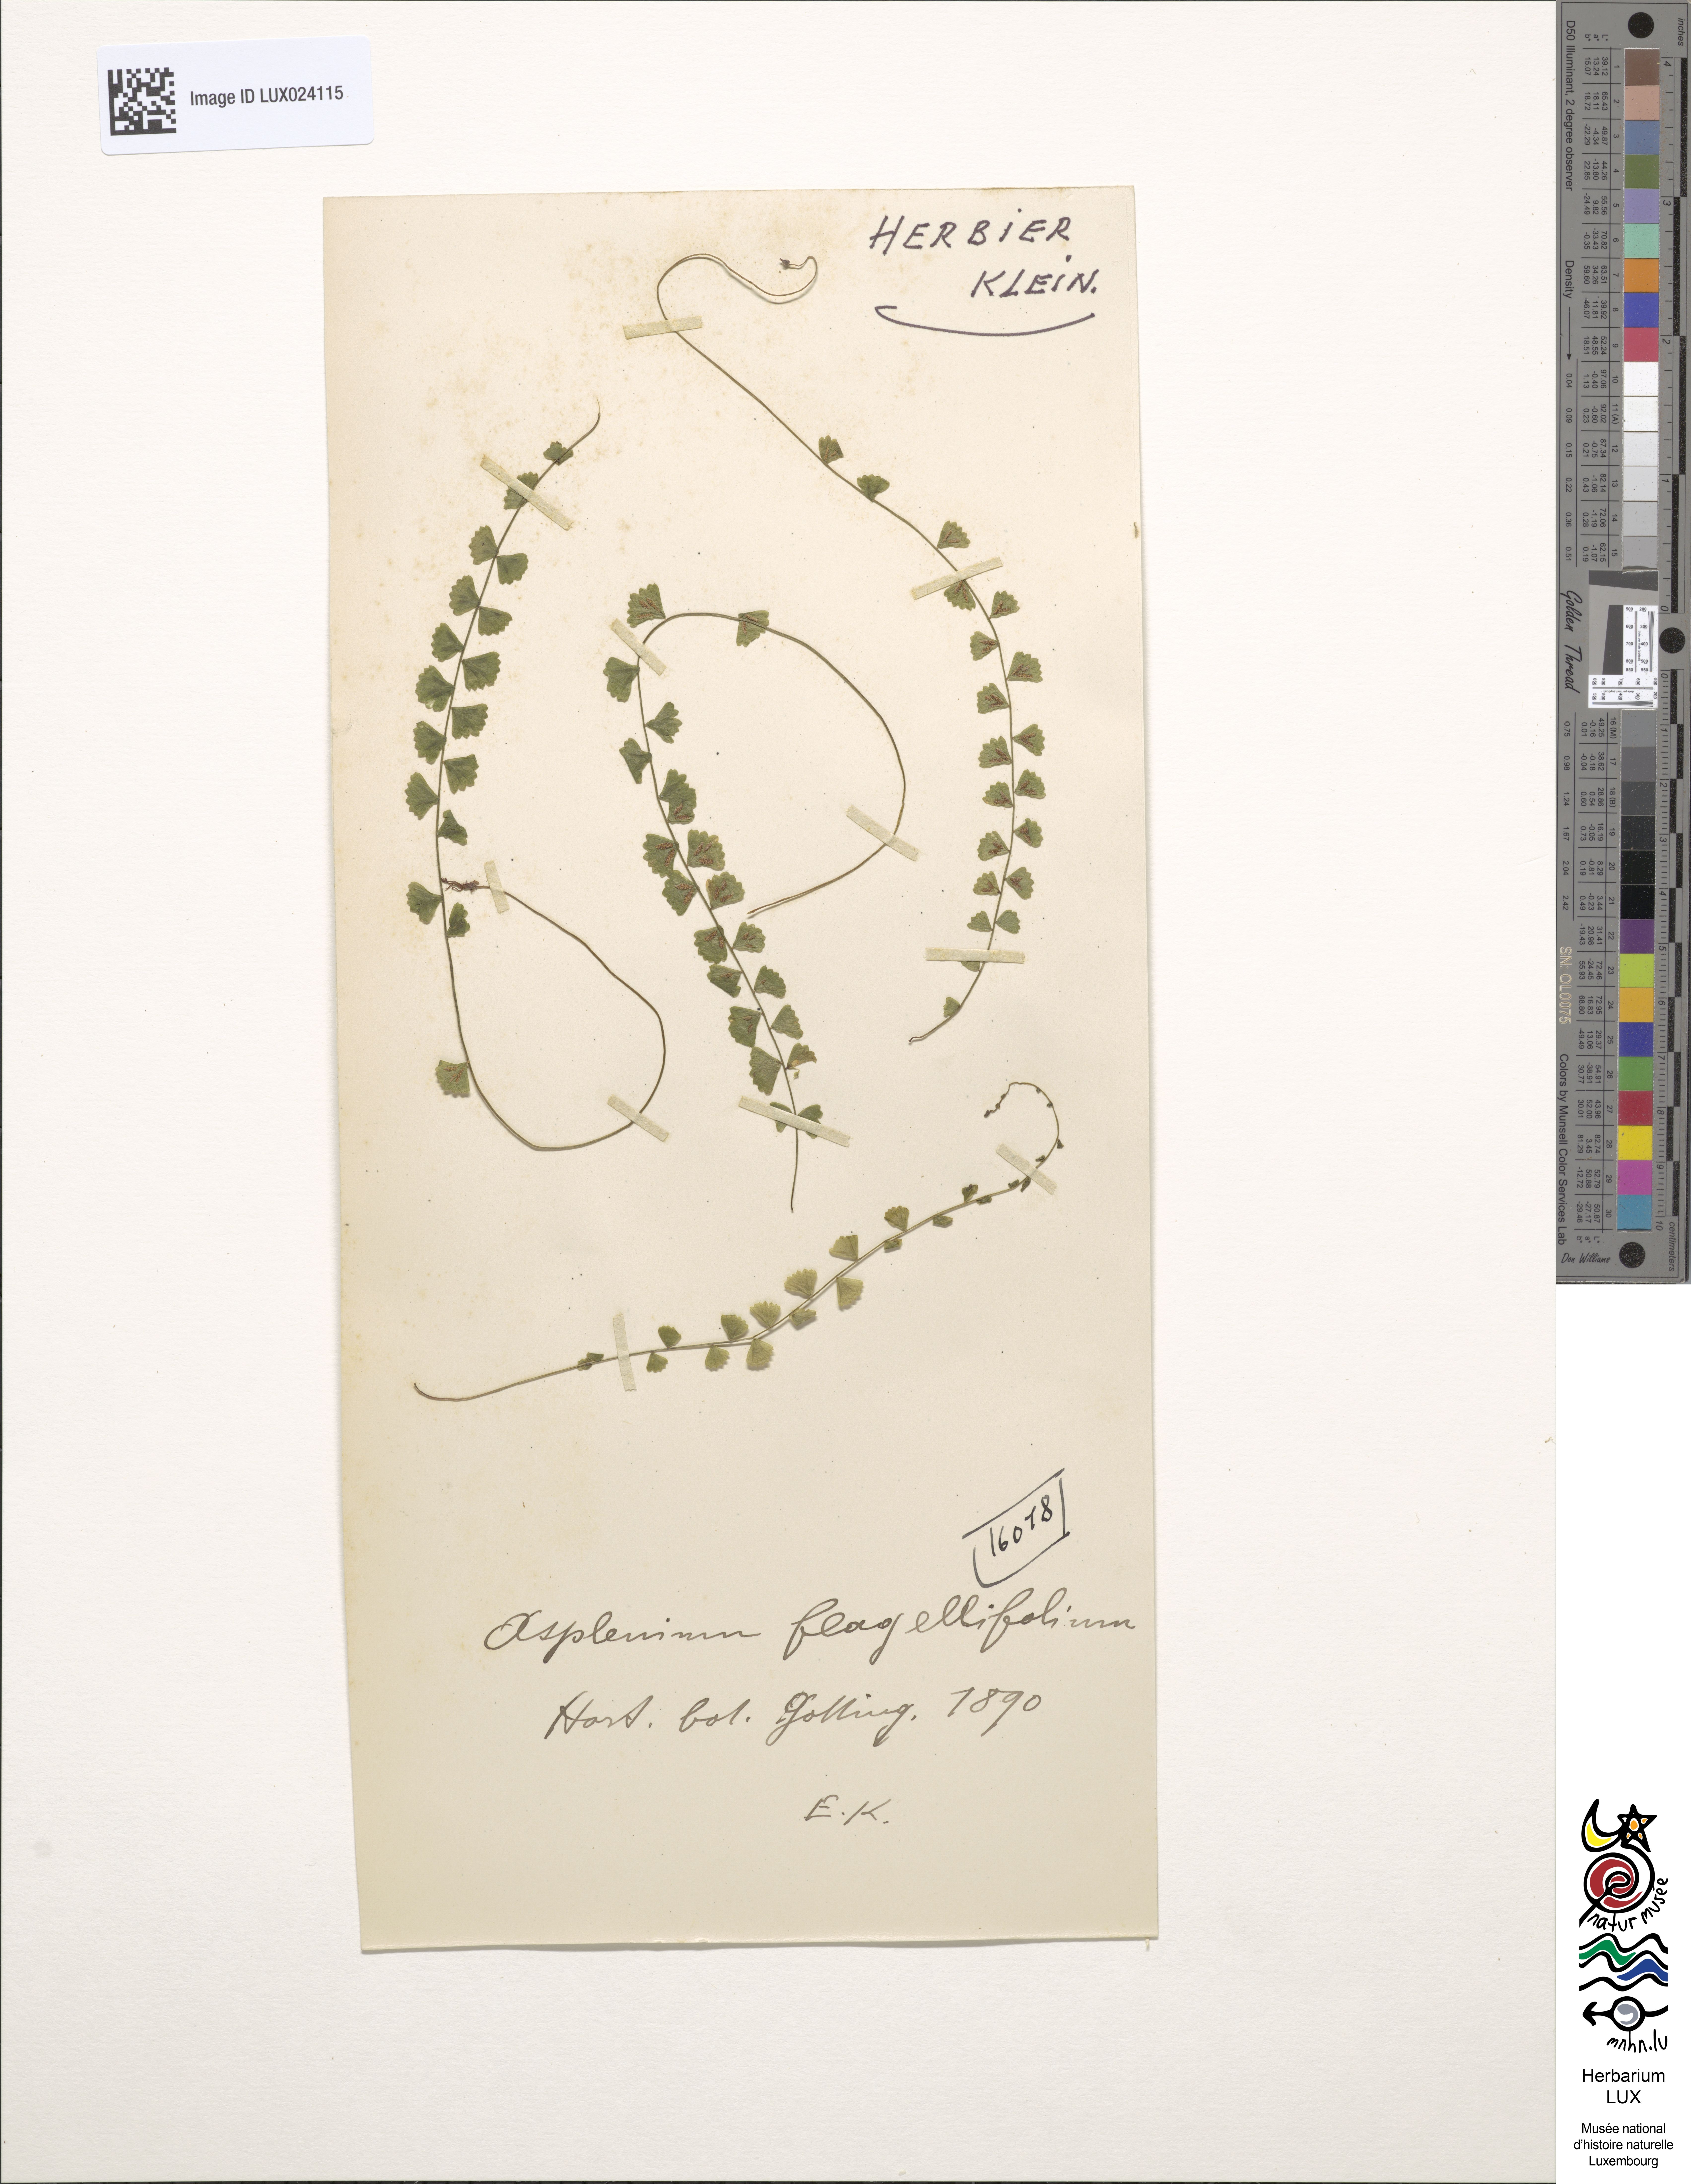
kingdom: Plantae
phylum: Tracheophyta
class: Polypodiopsida
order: Polypodiales
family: Aspleniaceae
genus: Asplenium
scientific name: Asplenium flabellifolium
